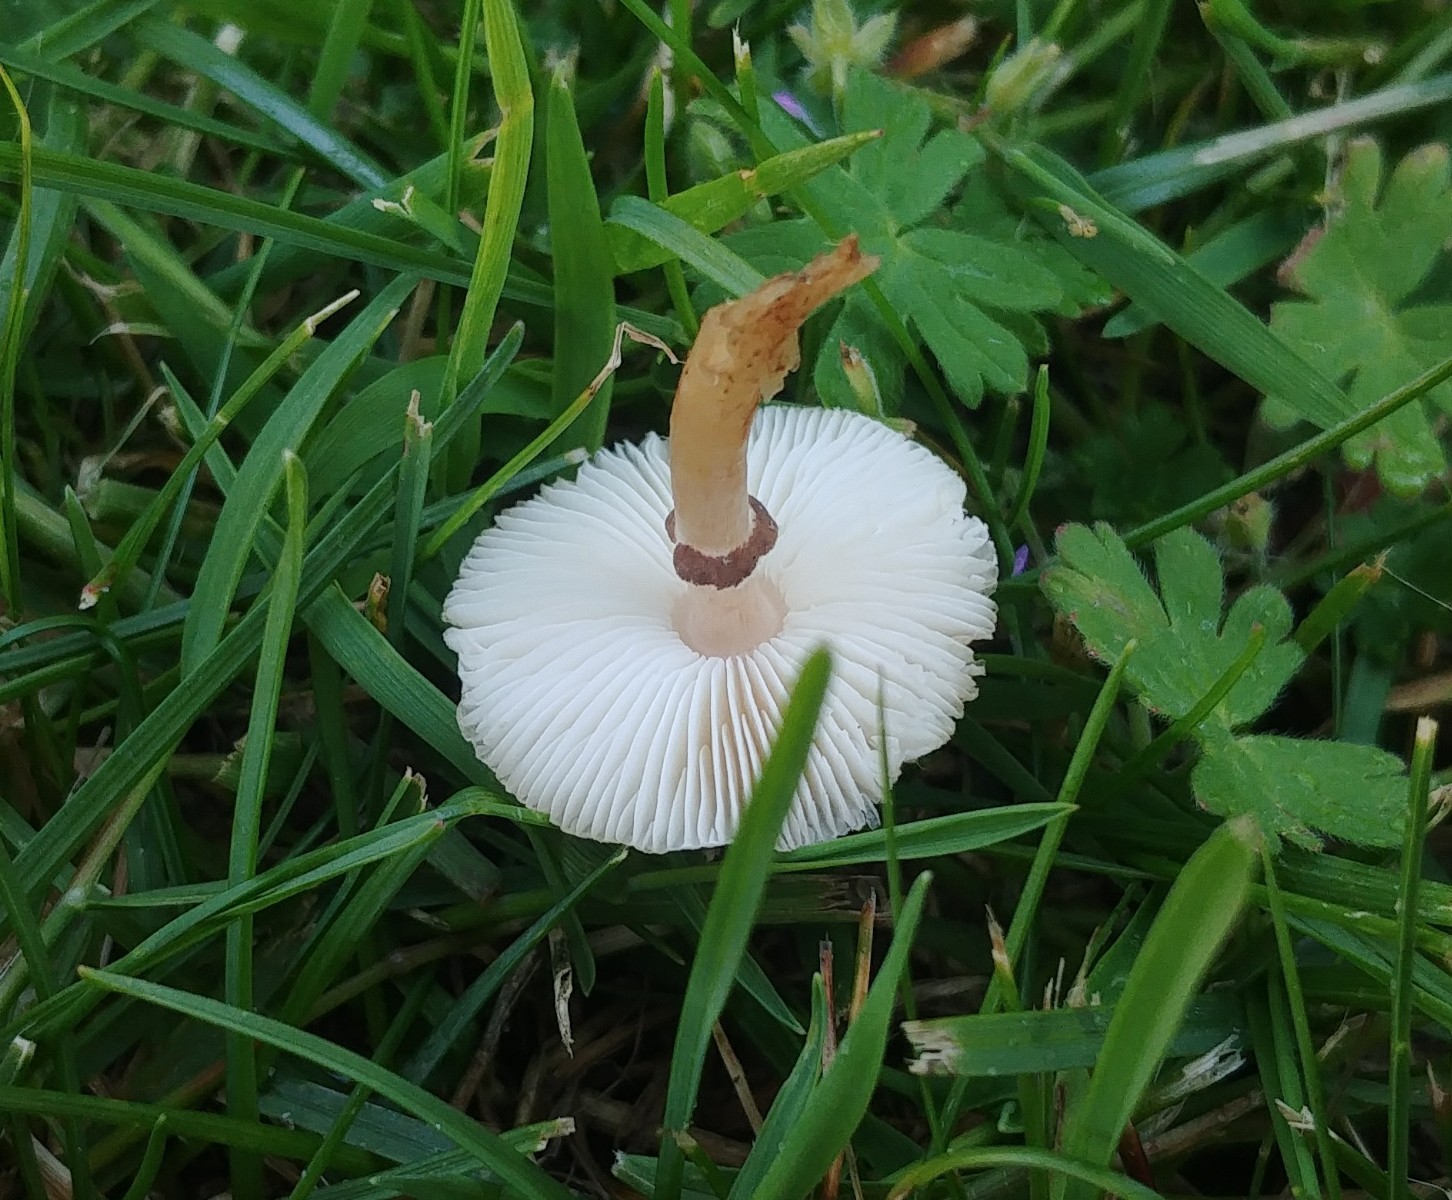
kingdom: Fungi
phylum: Basidiomycota
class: Agaricomycetes
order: Agaricales
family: Agaricaceae
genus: Lepiota
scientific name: Lepiota lilacea
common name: lillabrun parasolhat
